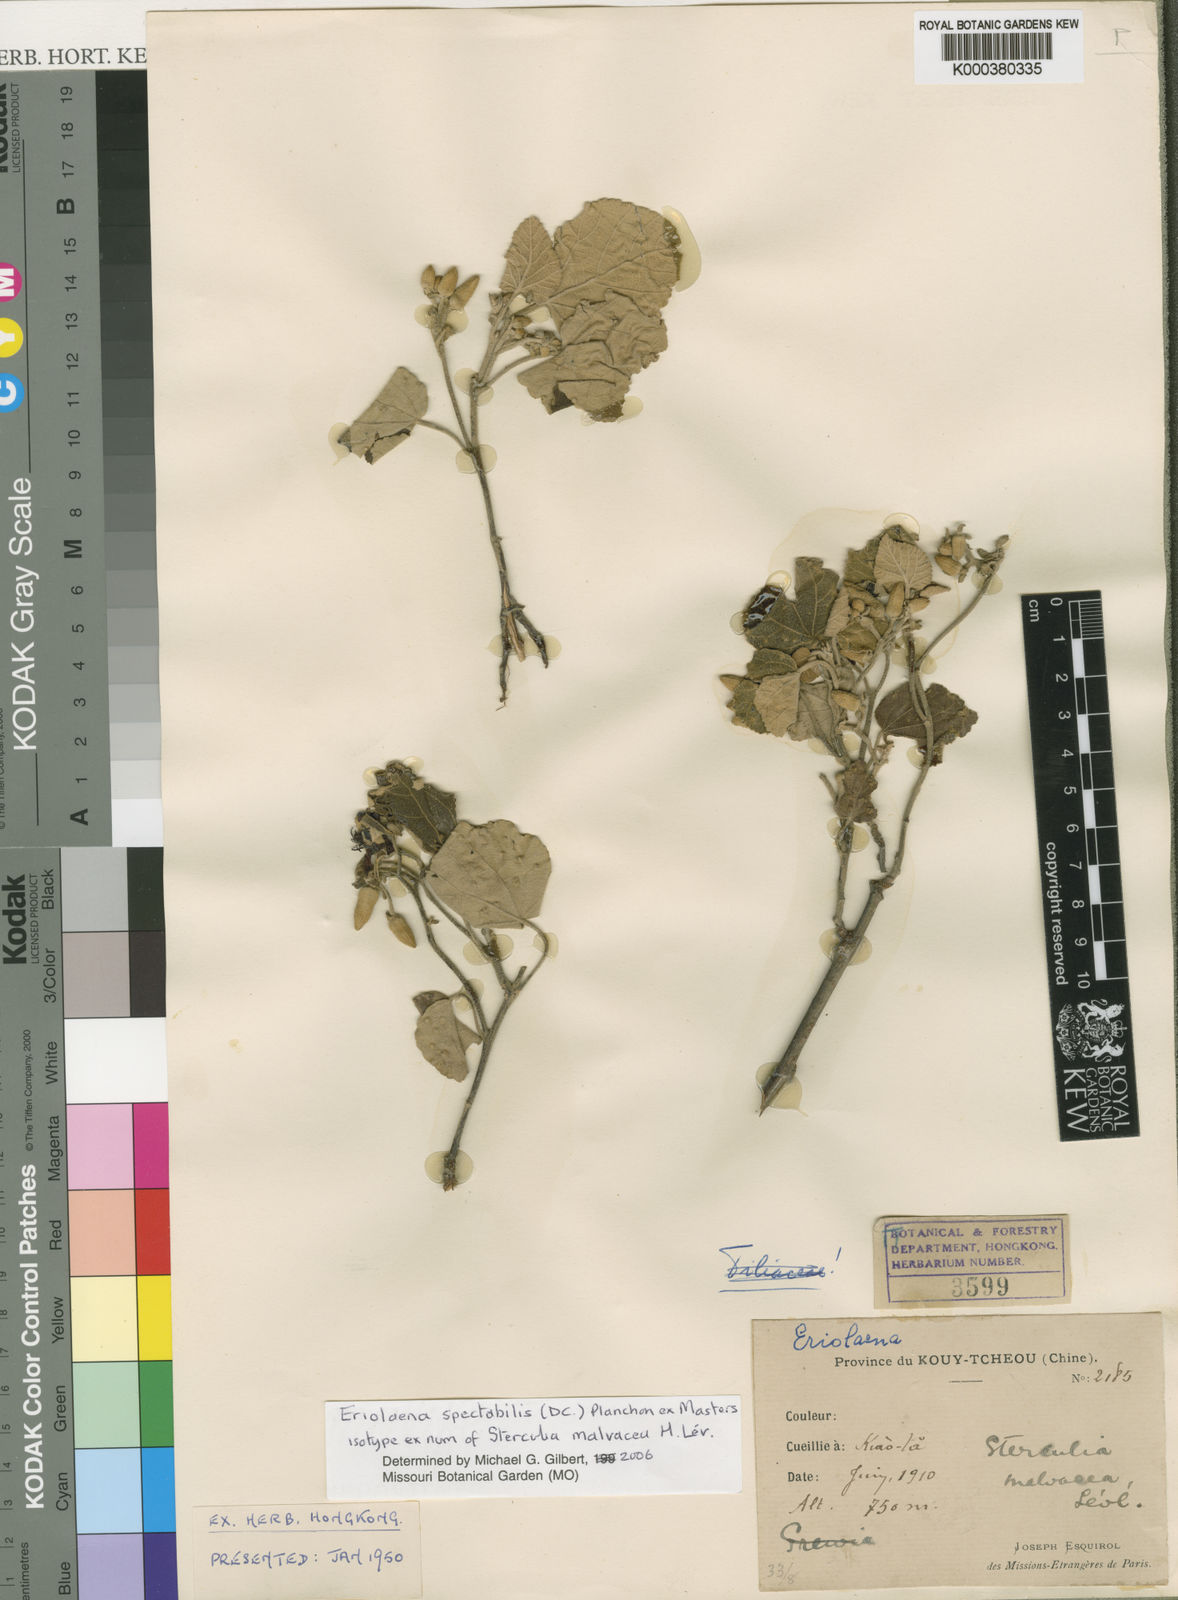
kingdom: Plantae
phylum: Tracheophyta
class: Magnoliopsida
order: Malvales
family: Malvaceae
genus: Eriolaena
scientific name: Eriolaena spectabilis
